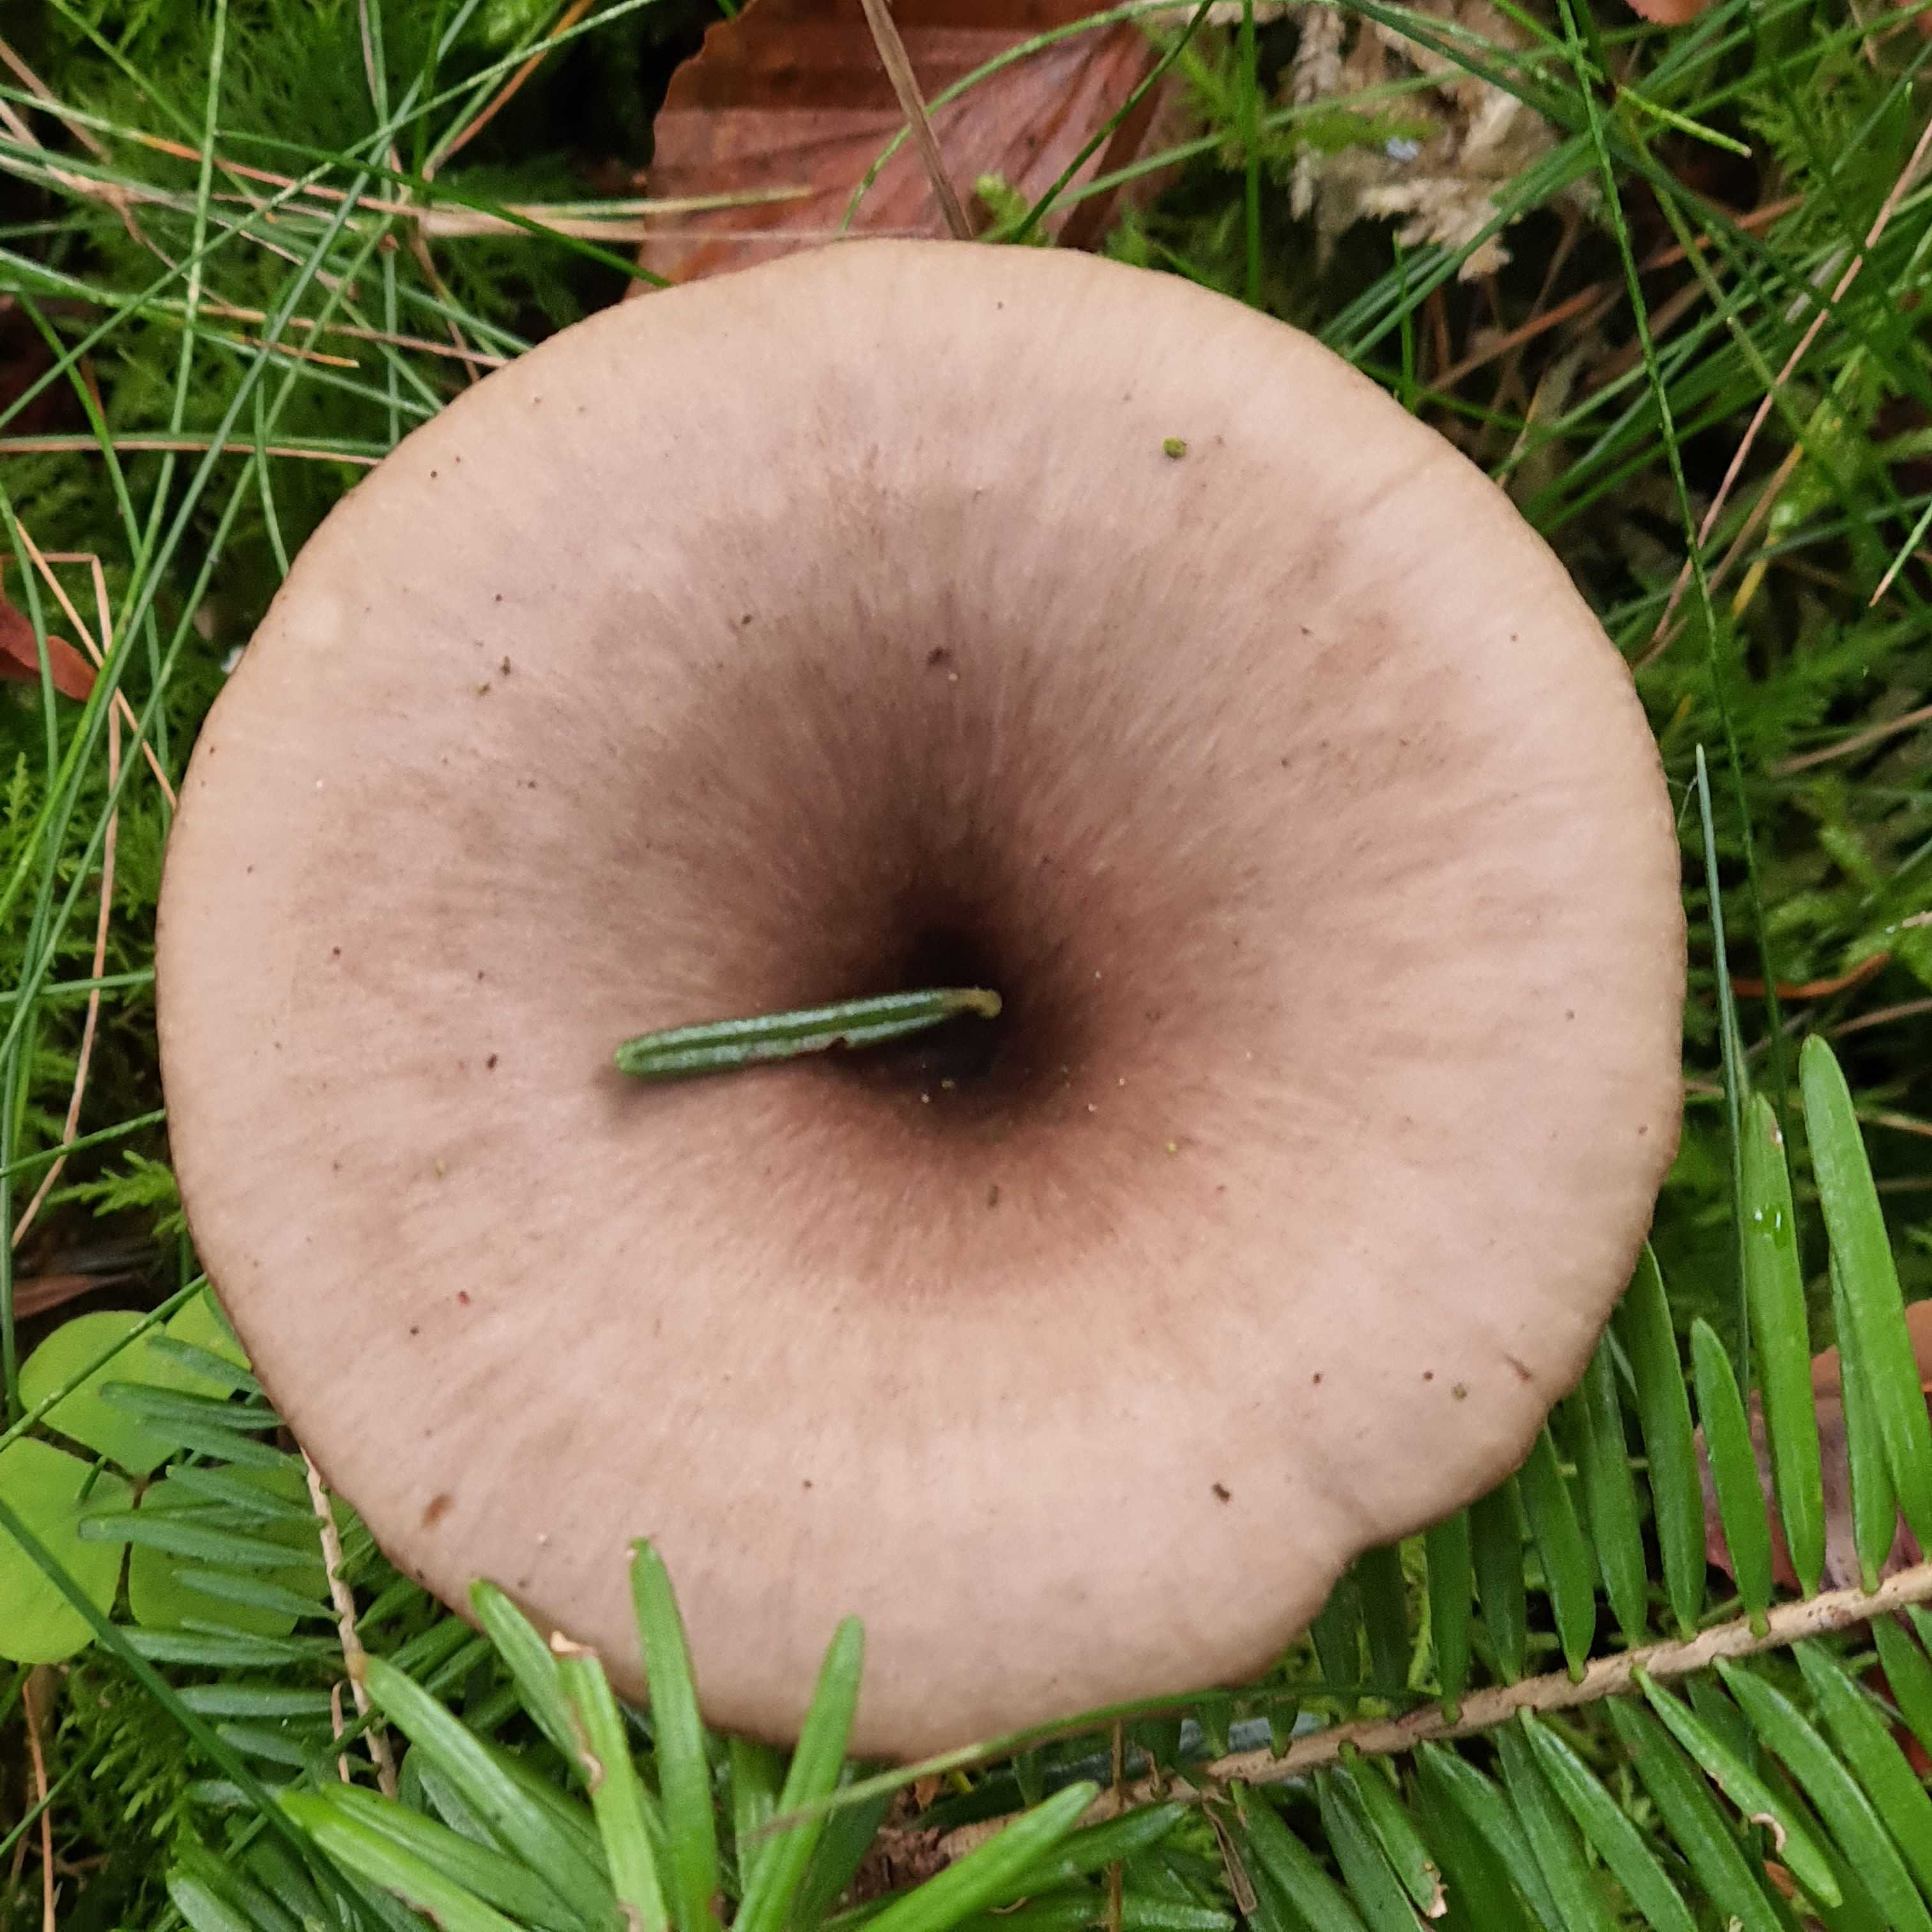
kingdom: Fungi
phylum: Basidiomycota
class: Agaricomycetes
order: Agaricales
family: Pseudoclitocybaceae
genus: Pseudoclitocybe
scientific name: Pseudoclitocybe cyathiformis
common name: almindelig bægertragthat
